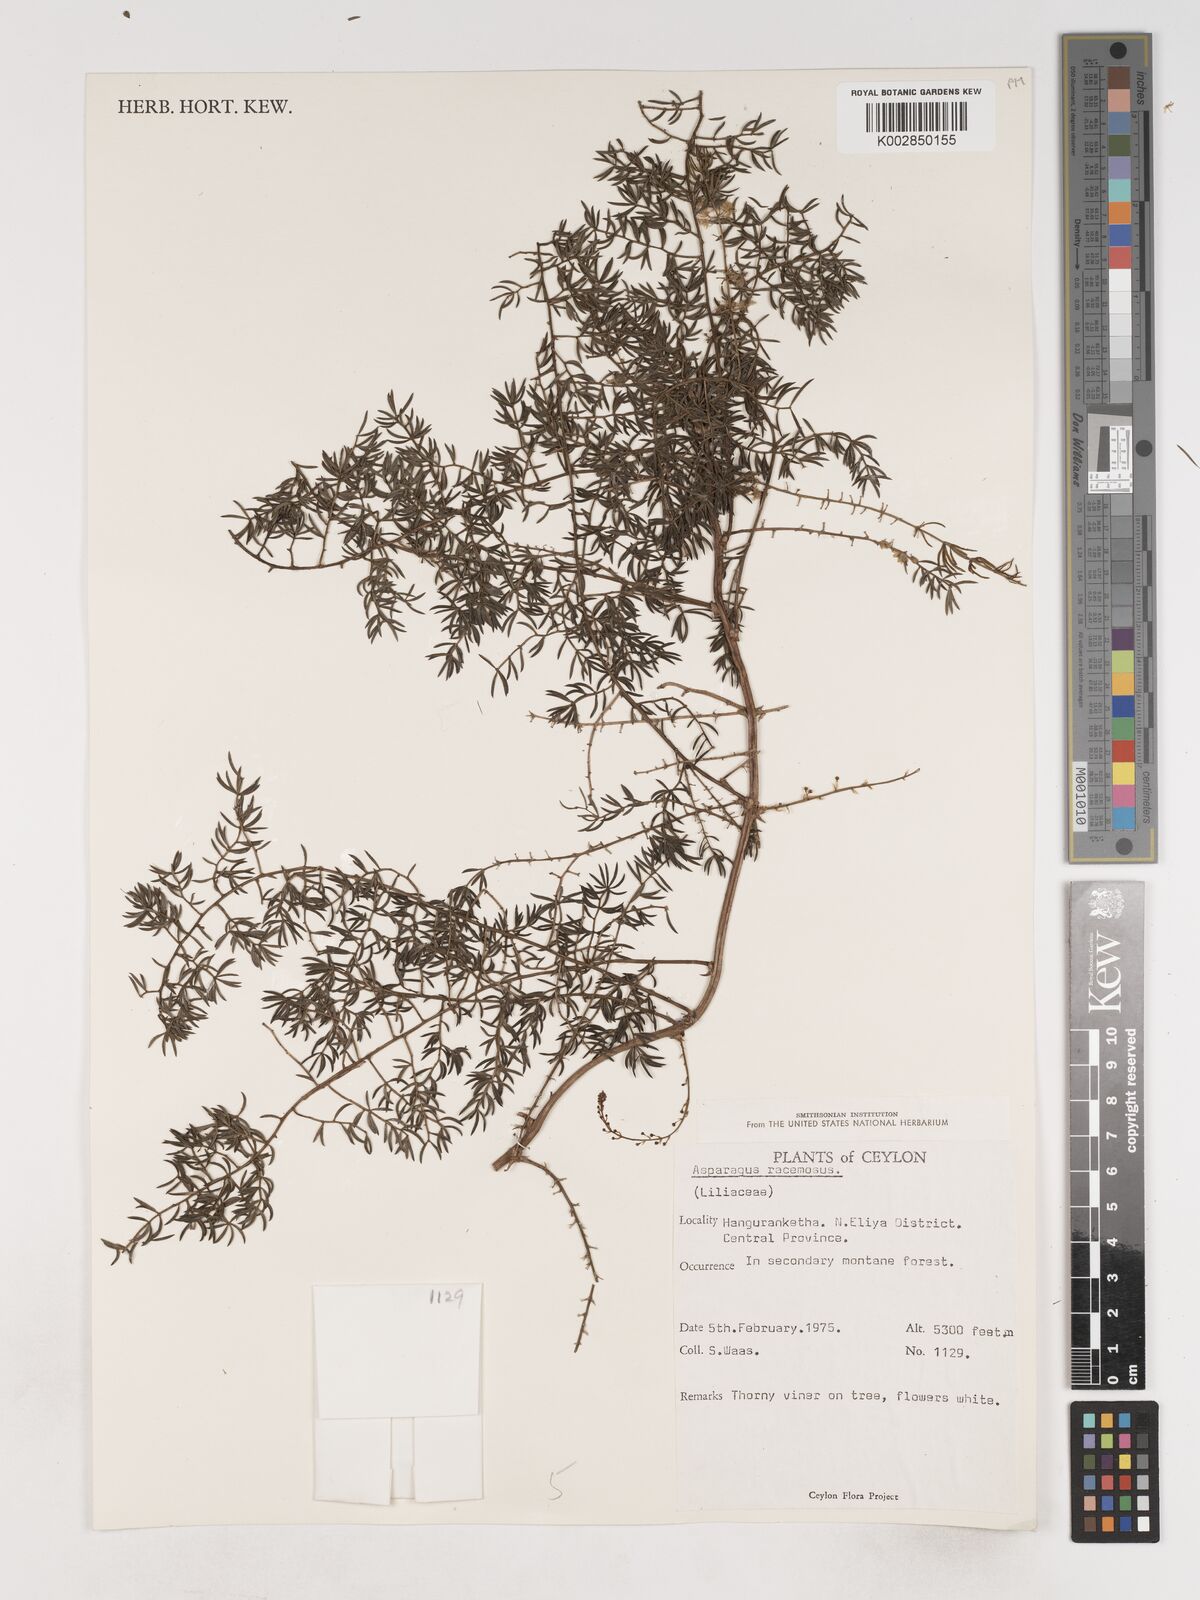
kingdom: Plantae
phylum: Tracheophyta
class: Liliopsida
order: Asparagales
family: Asparagaceae
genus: Asparagus
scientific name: Asparagus racemosus
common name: Asparagus-fern
